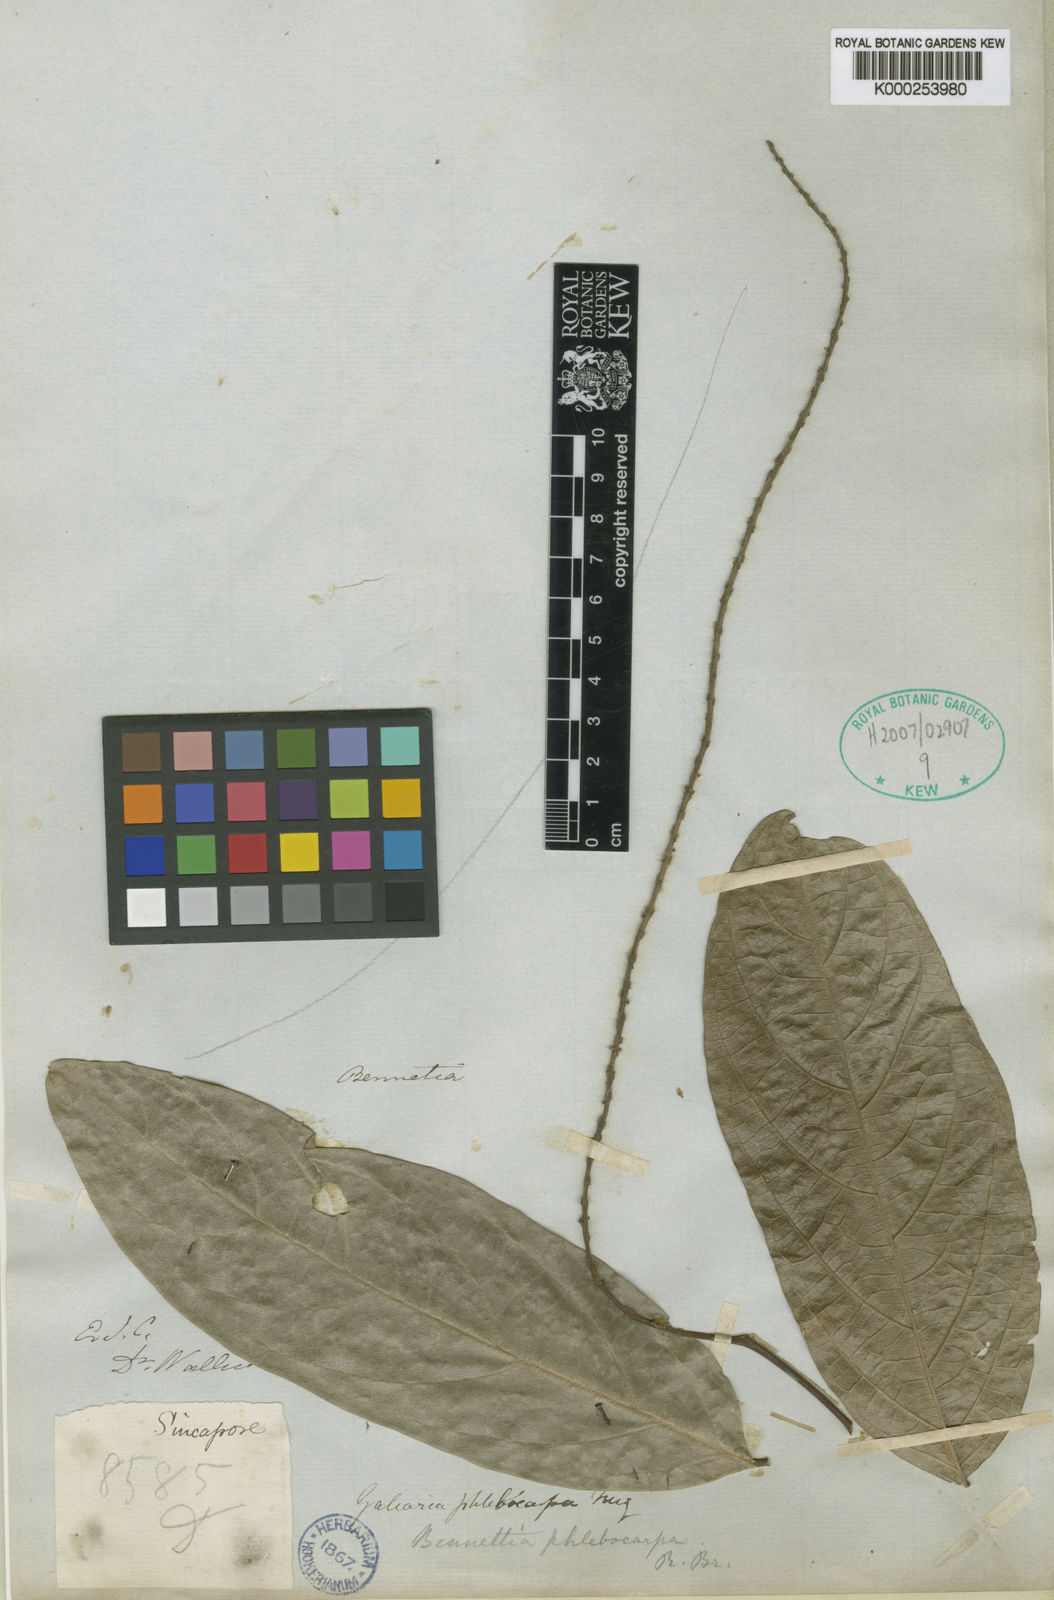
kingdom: Plantae
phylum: Tracheophyta
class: Magnoliopsida
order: Malpighiales
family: Pandaceae
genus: Galearia
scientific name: Galearia fulva
